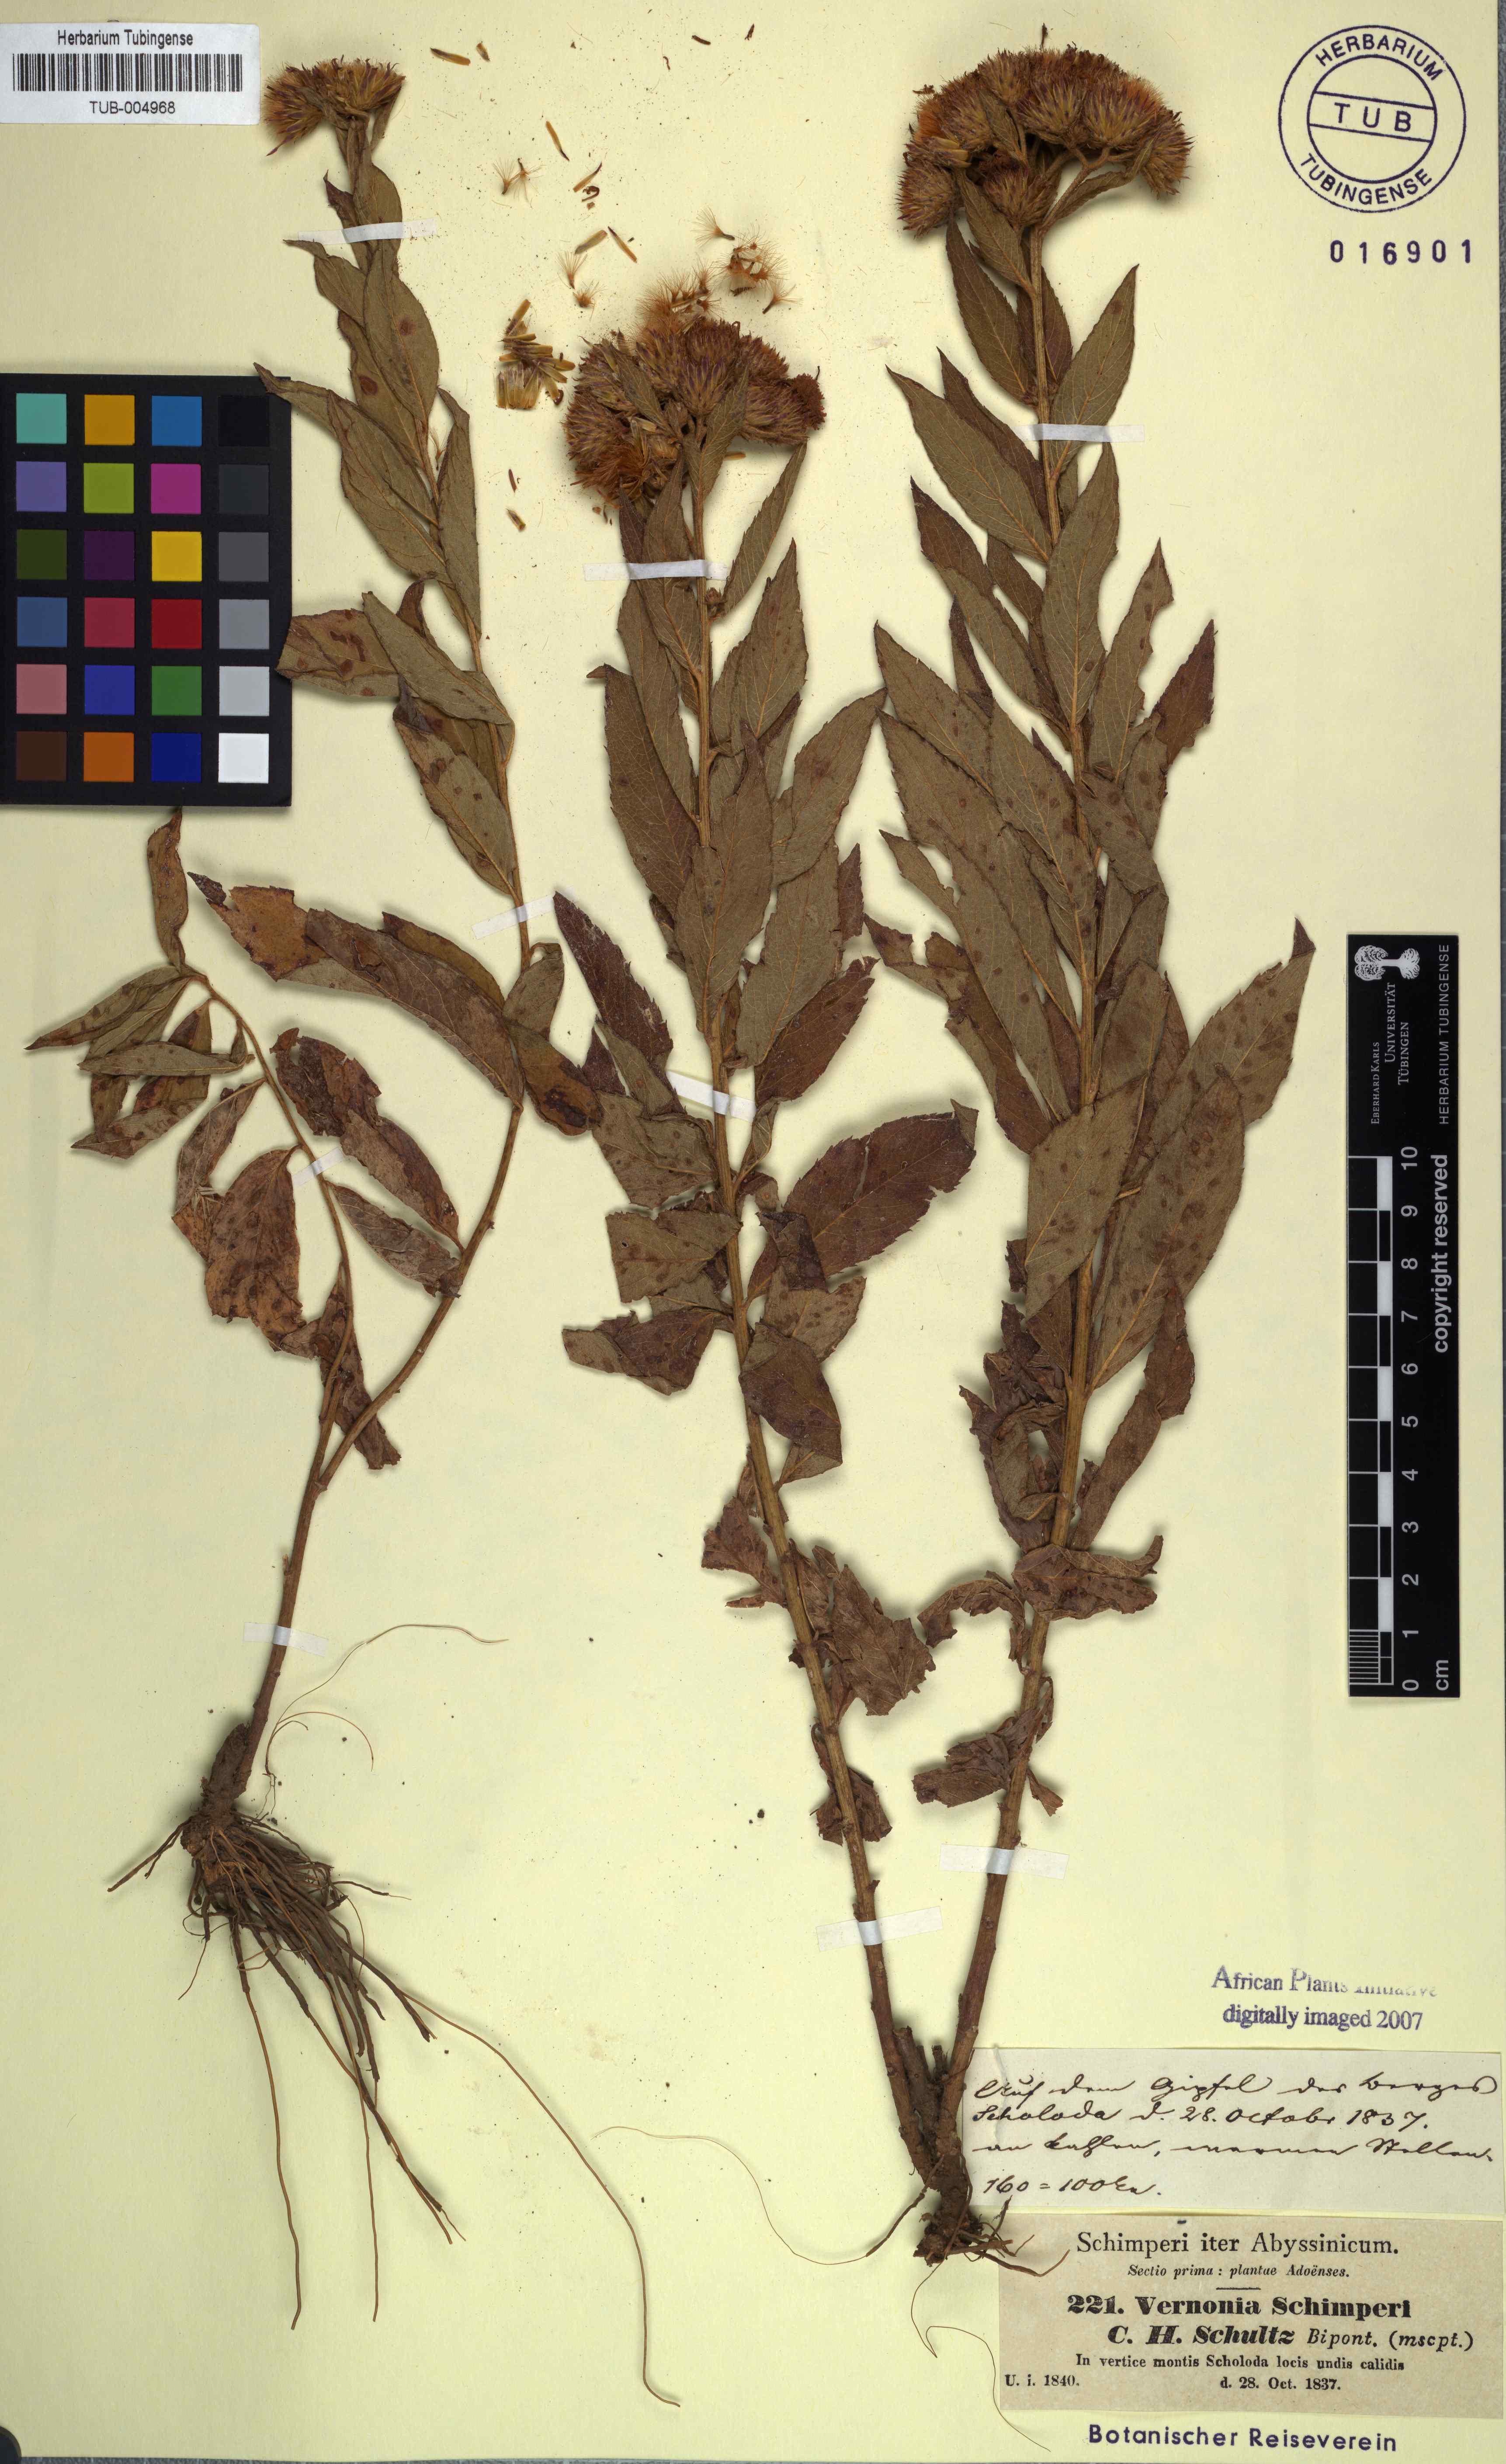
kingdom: Plantae
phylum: Tracheophyta
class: Magnoliopsida
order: Asterales
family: Asteraceae
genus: Nothovernonia
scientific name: Nothovernonia purpurea
